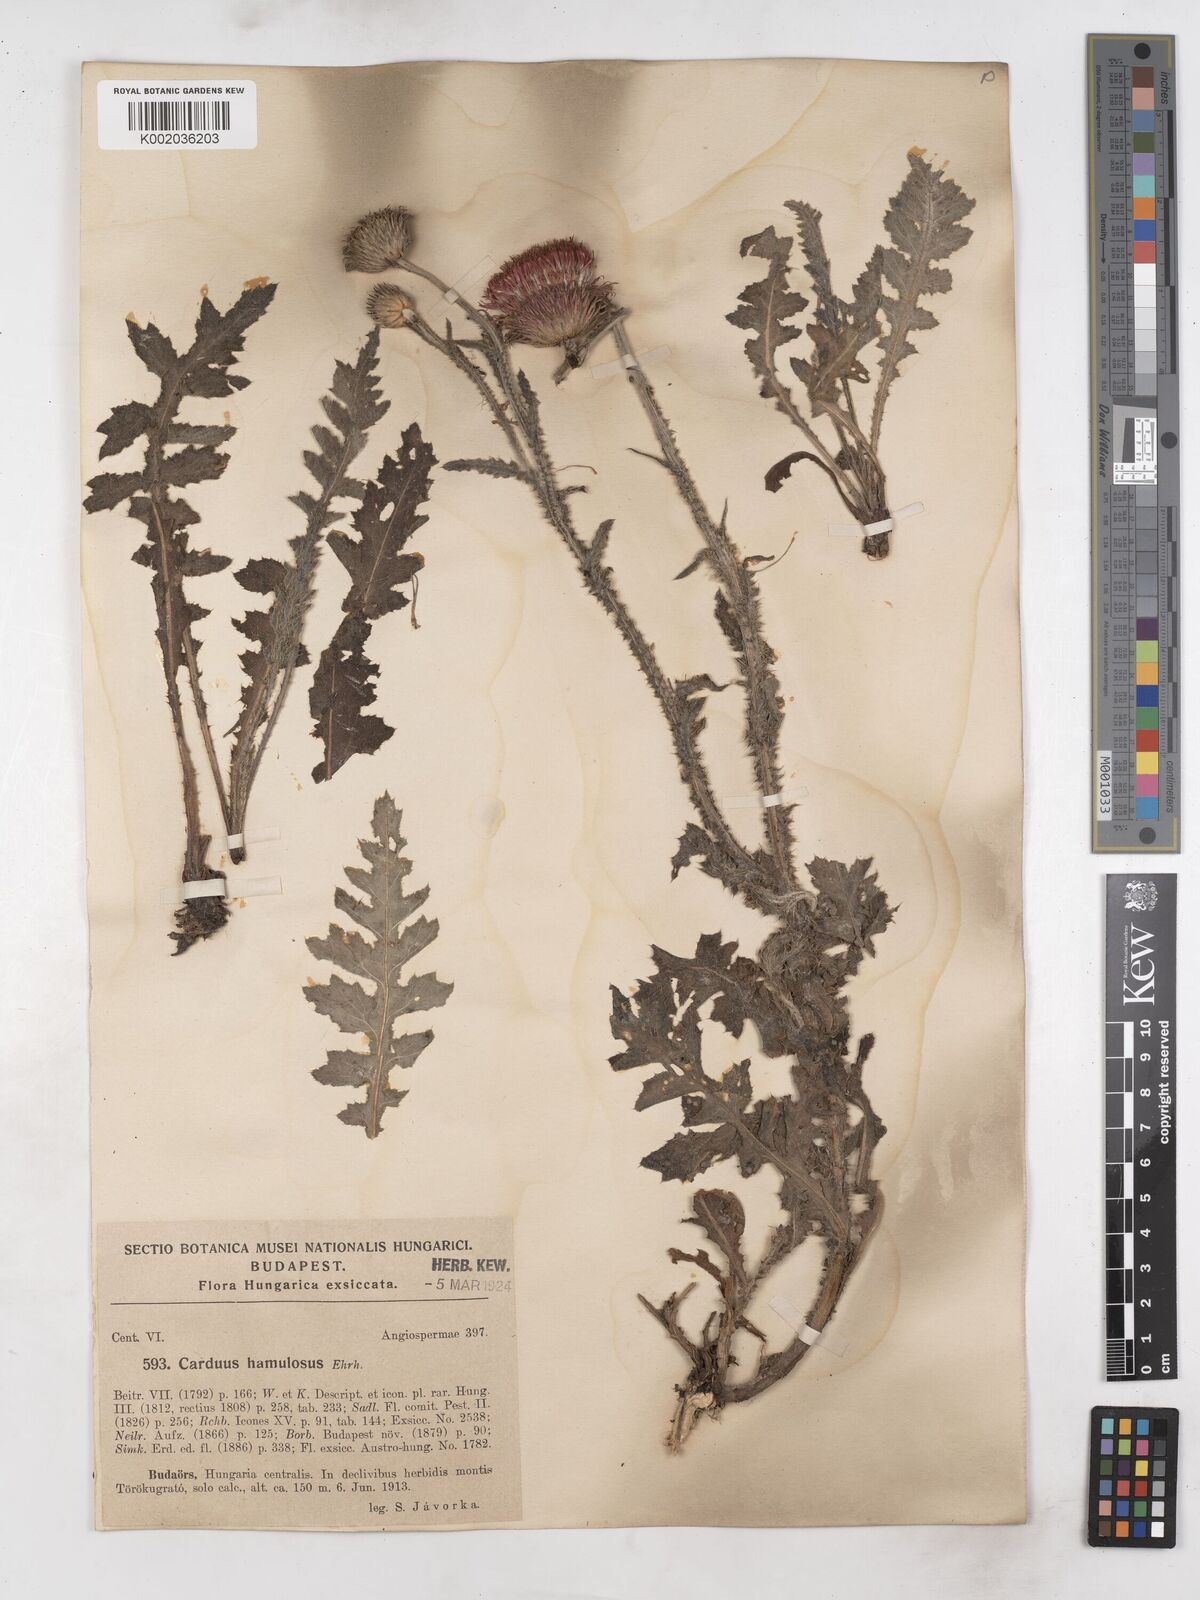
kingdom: Plantae
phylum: Tracheophyta
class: Magnoliopsida
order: Asterales
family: Asteraceae
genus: Carduus
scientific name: Carduus hamulosus
